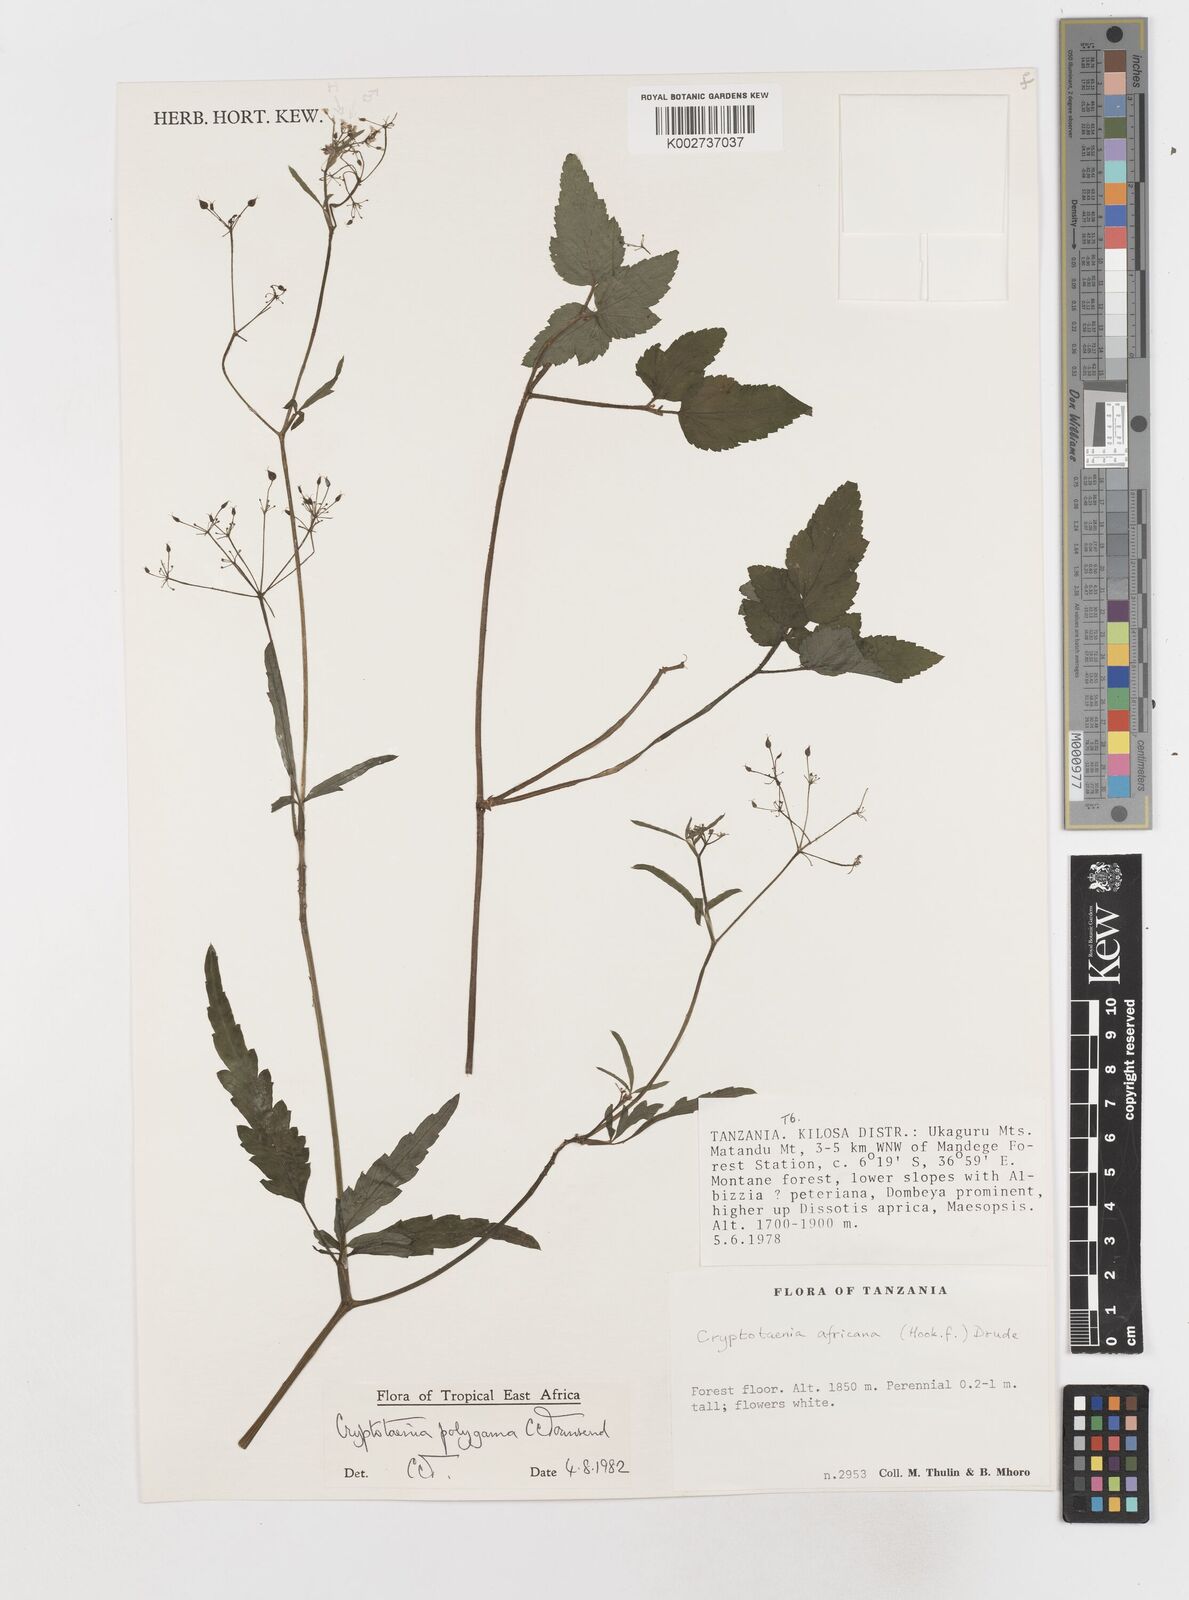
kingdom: Plantae
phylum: Tracheophyta
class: Magnoliopsida
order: Apiales
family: Apiaceae
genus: Cryptotaenia
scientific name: Cryptotaenia polygama
